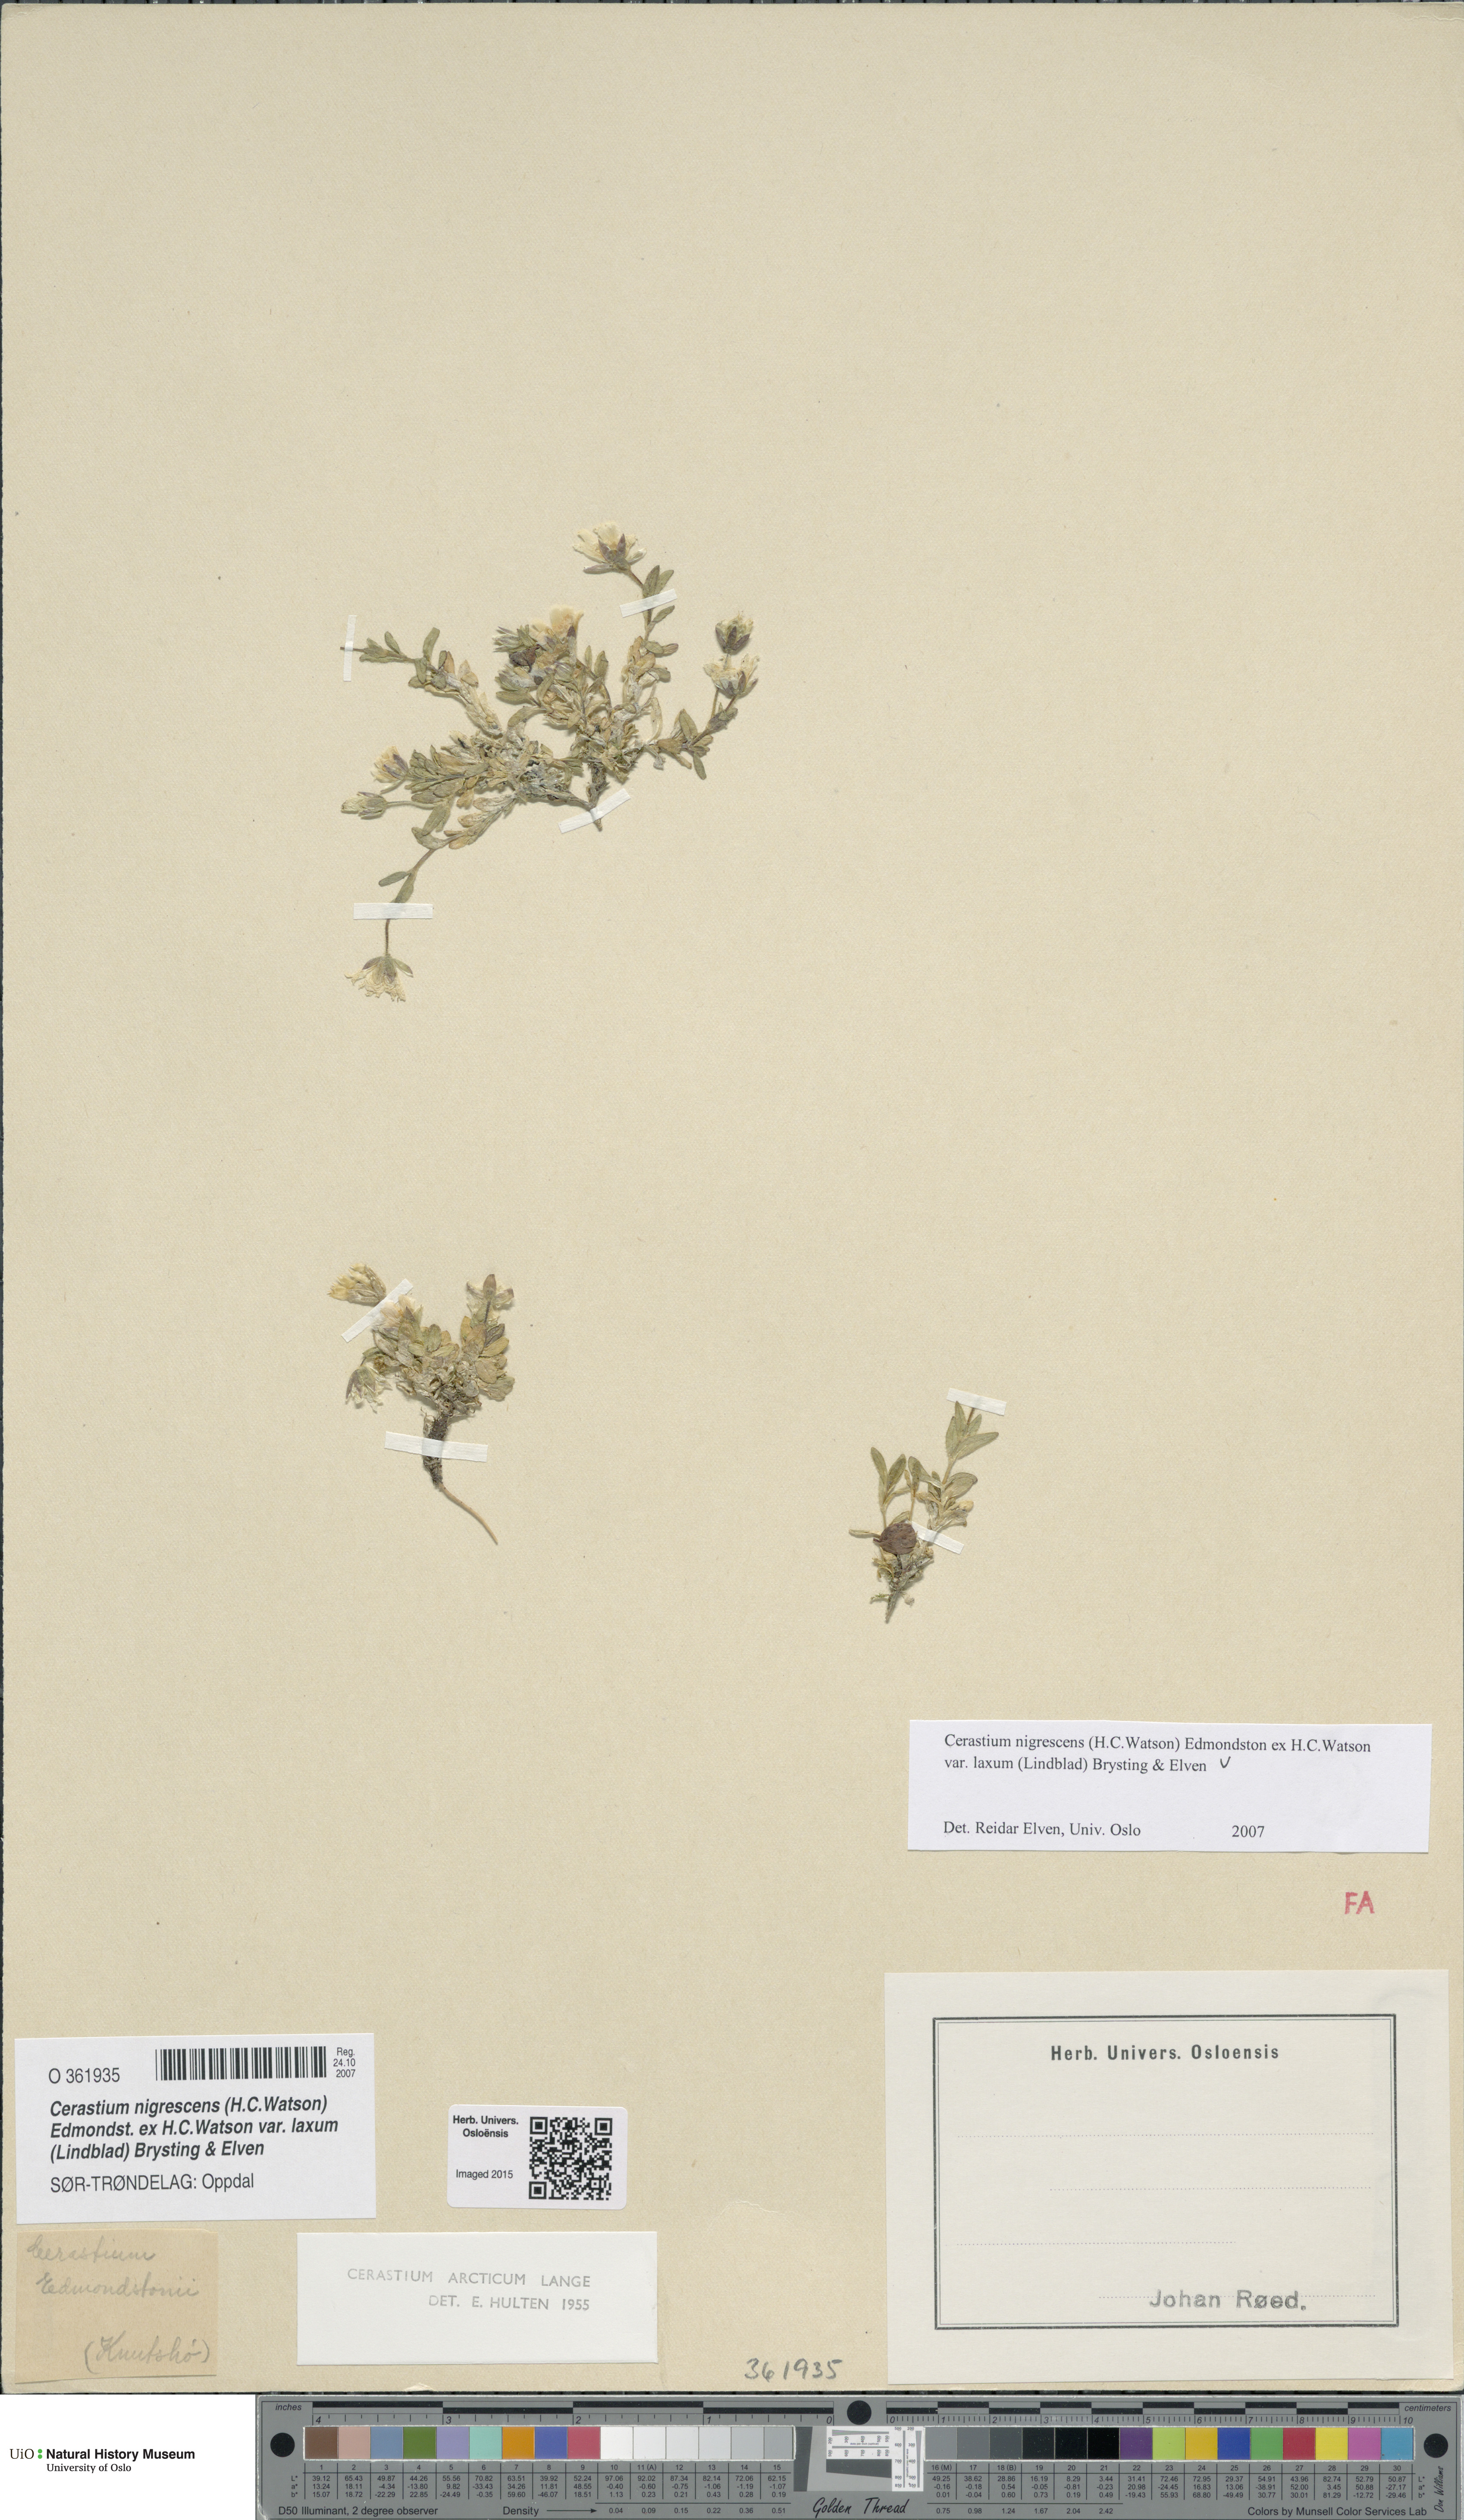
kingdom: Plantae
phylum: Tracheophyta
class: Magnoliopsida
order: Caryophyllales
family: Caryophyllaceae
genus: Cerastium
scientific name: Cerastium nigrescens
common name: Shetland mouse-ear
